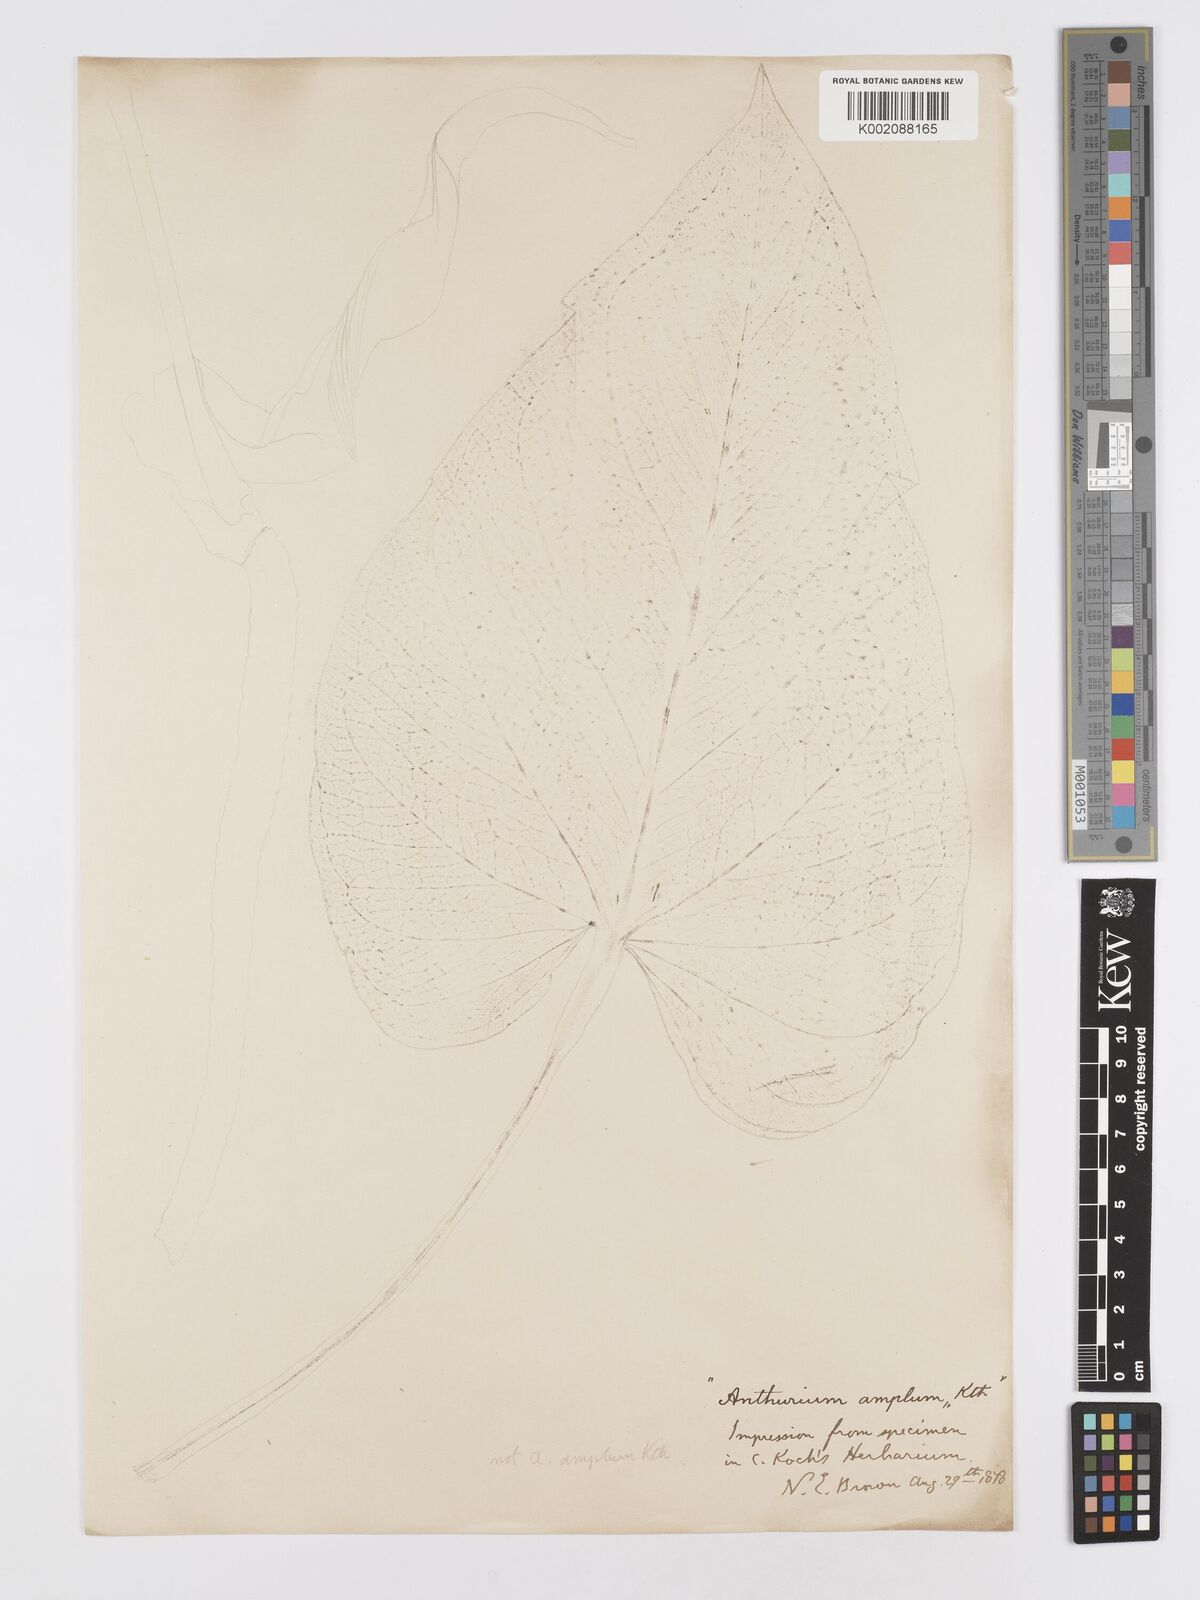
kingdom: Plantae
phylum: Tracheophyta
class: Liliopsida
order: Alismatales
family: Araceae
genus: Anthurium
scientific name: Anthurium
